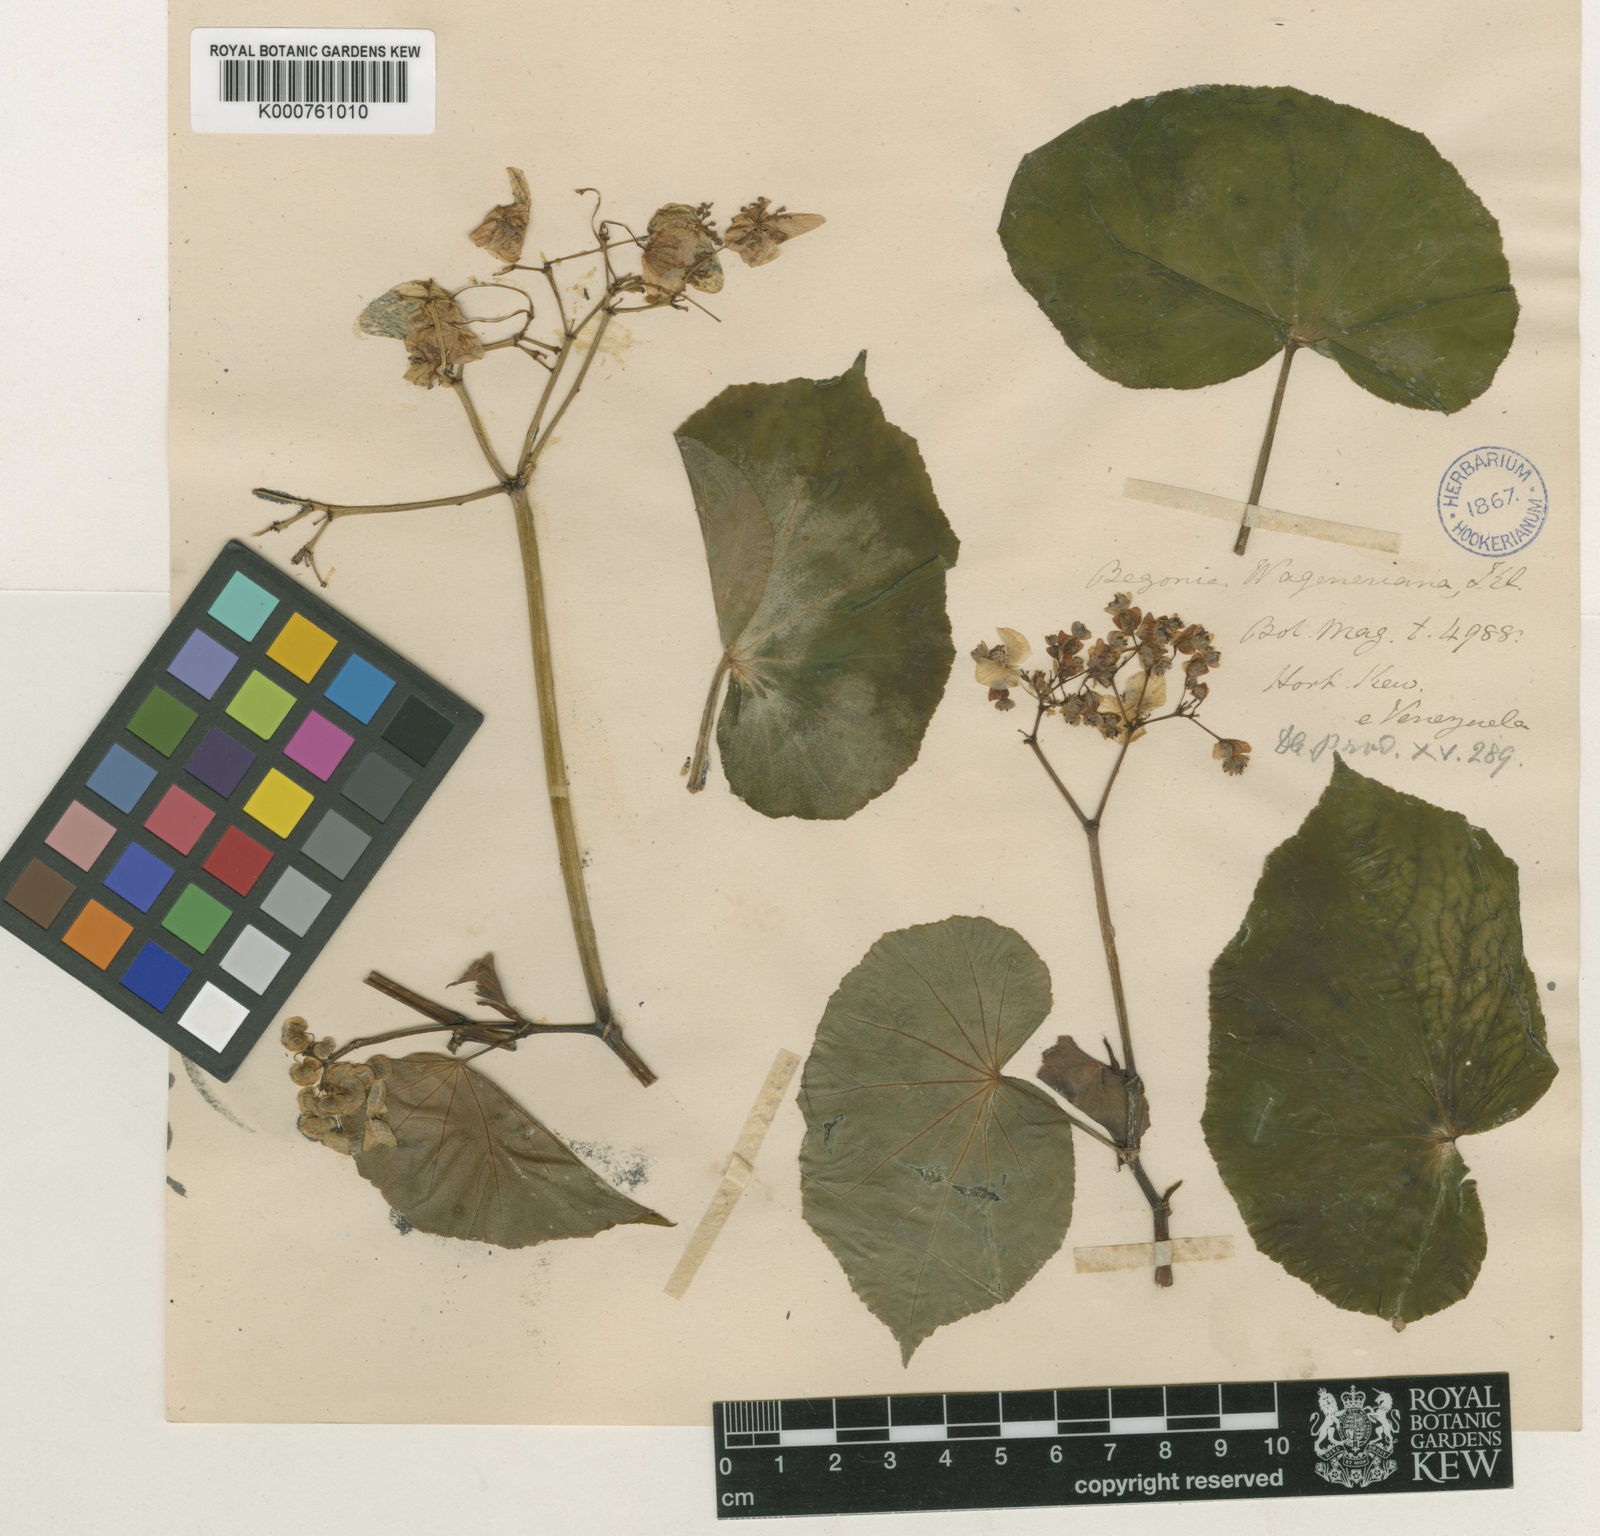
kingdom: Plantae
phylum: Tracheophyta
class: Magnoliopsida
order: Cucurbitales
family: Begoniaceae
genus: Begonia
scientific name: Begonia wageneriana
